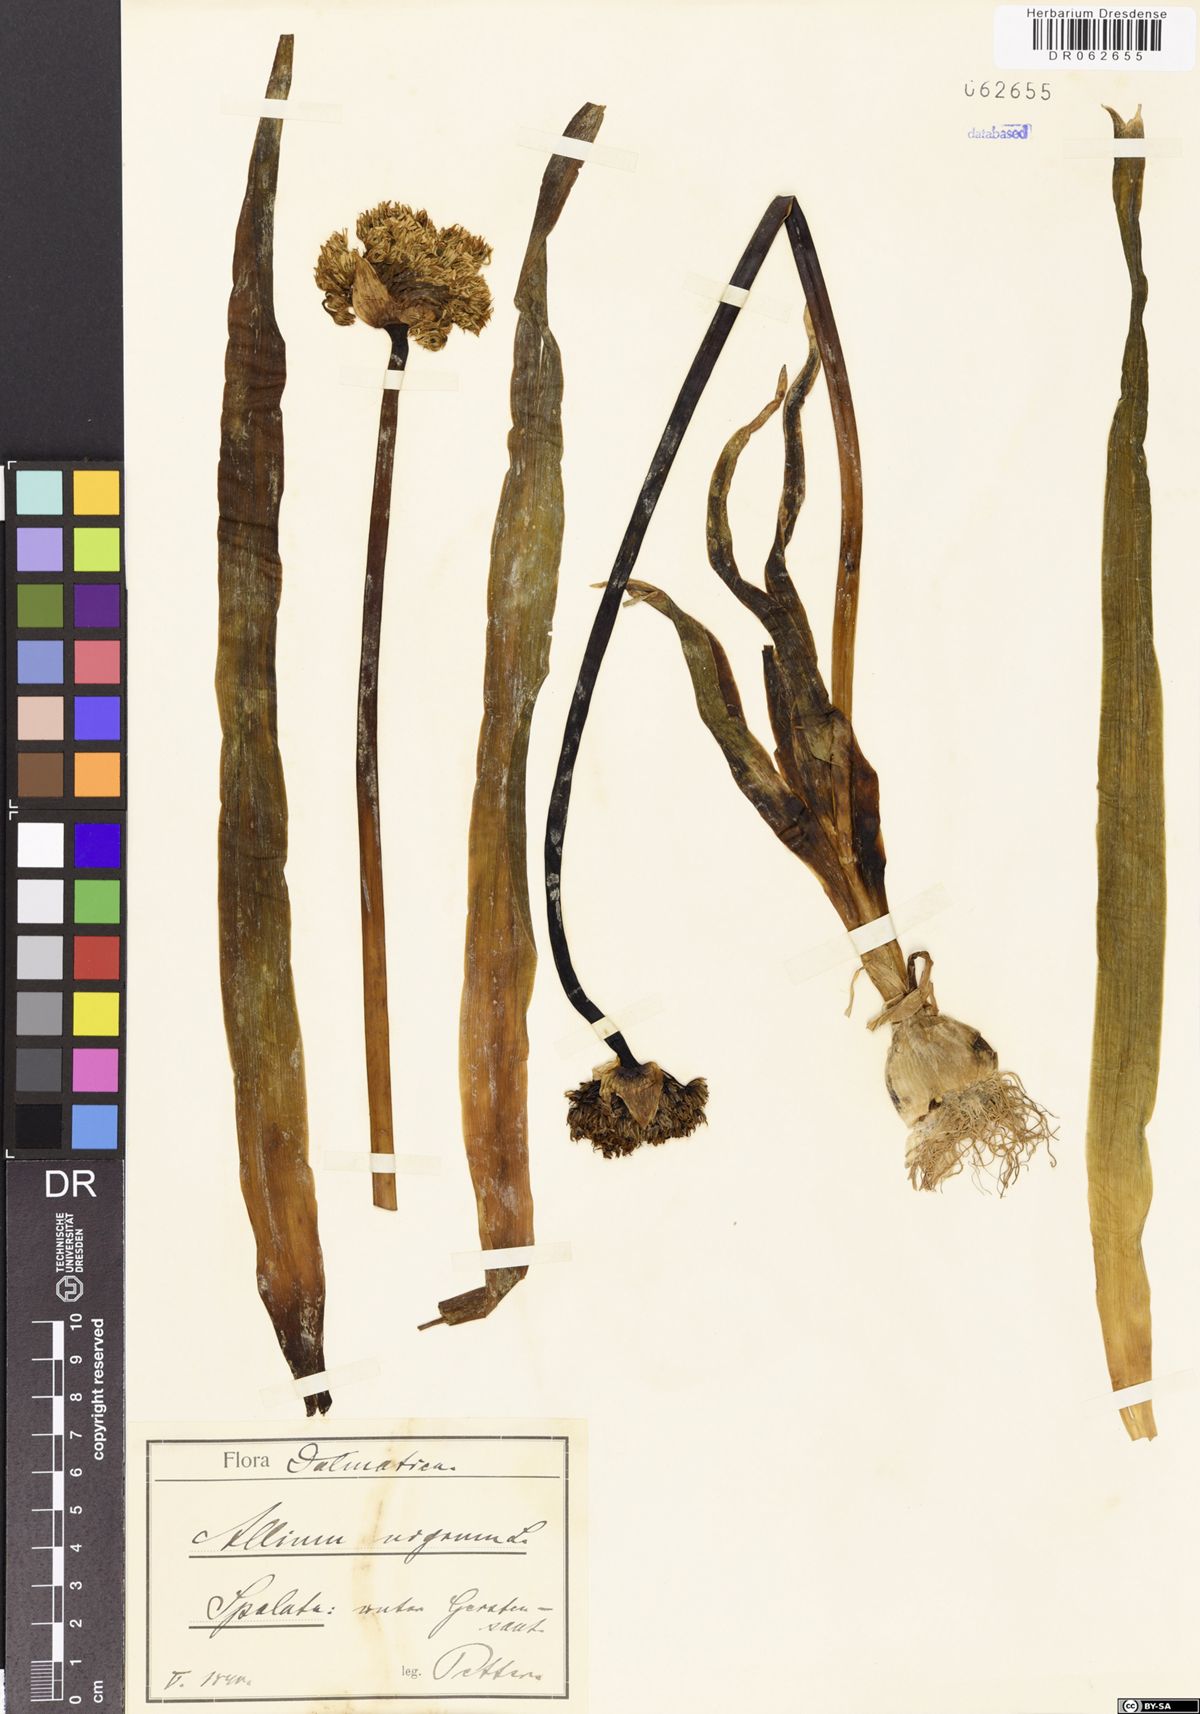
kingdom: Plantae
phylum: Tracheophyta
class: Liliopsida
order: Asparagales
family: Amaryllidaceae
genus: Allium
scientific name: Allium nigrum
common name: Black garlic
